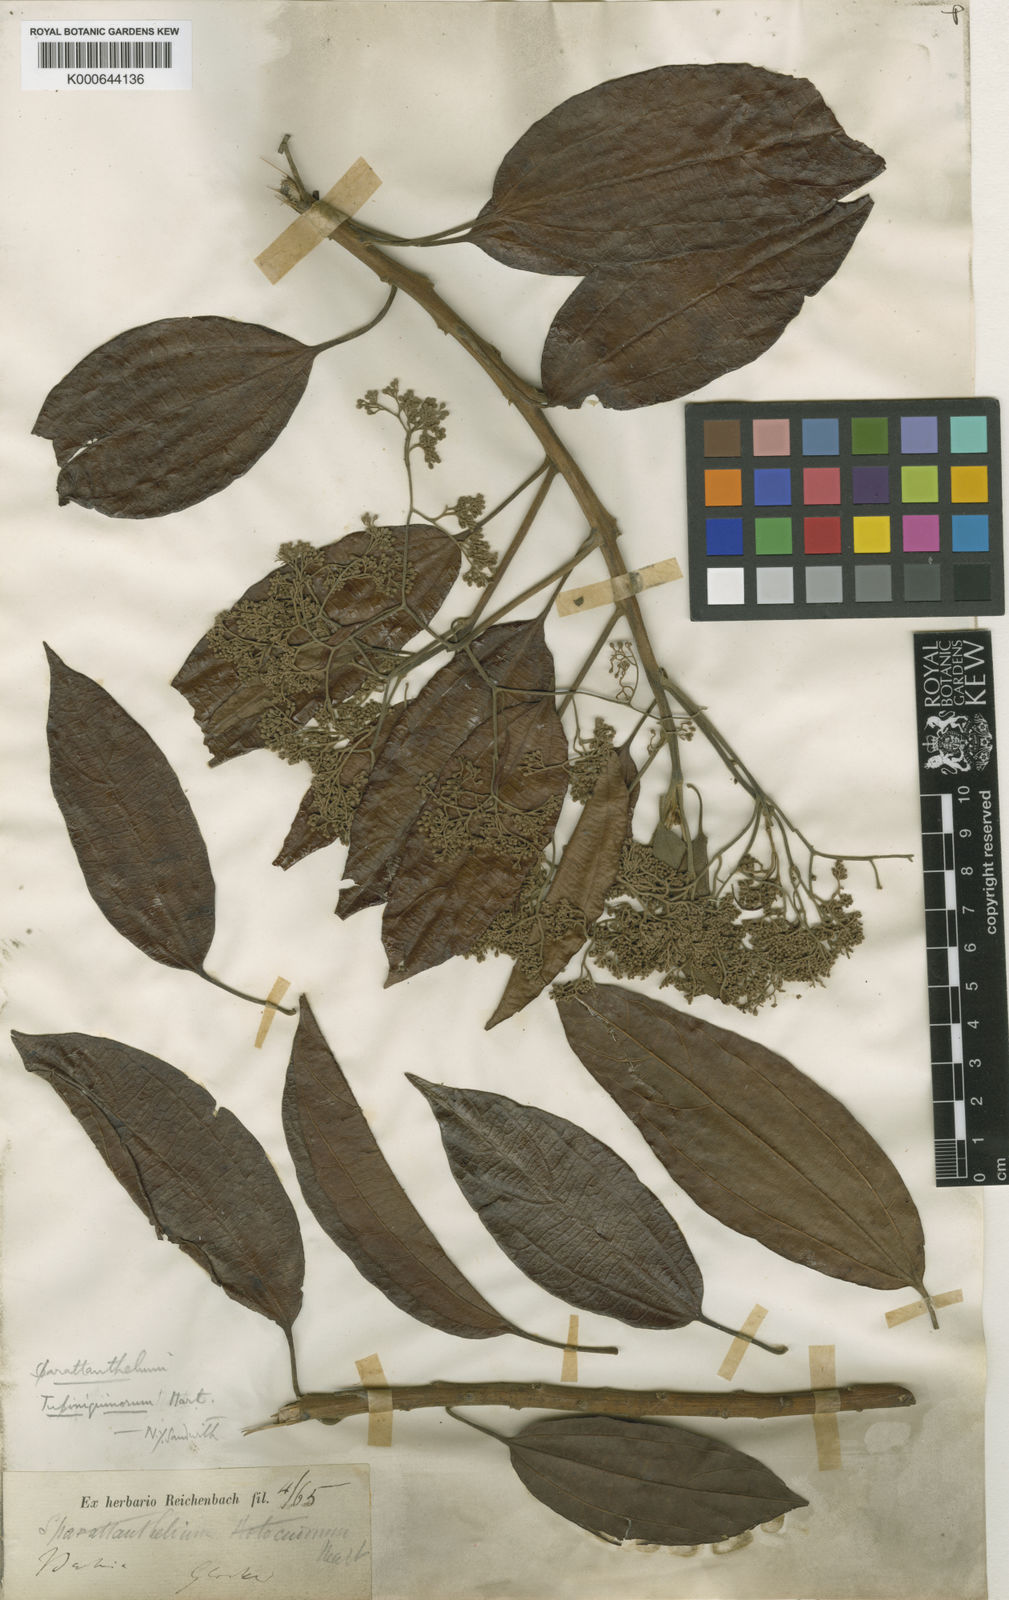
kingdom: Plantae
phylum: Tracheophyta
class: Magnoliopsida
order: Laurales
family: Hernandiaceae
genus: Sparattanthelium
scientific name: Sparattanthelium tupiniquinorum
